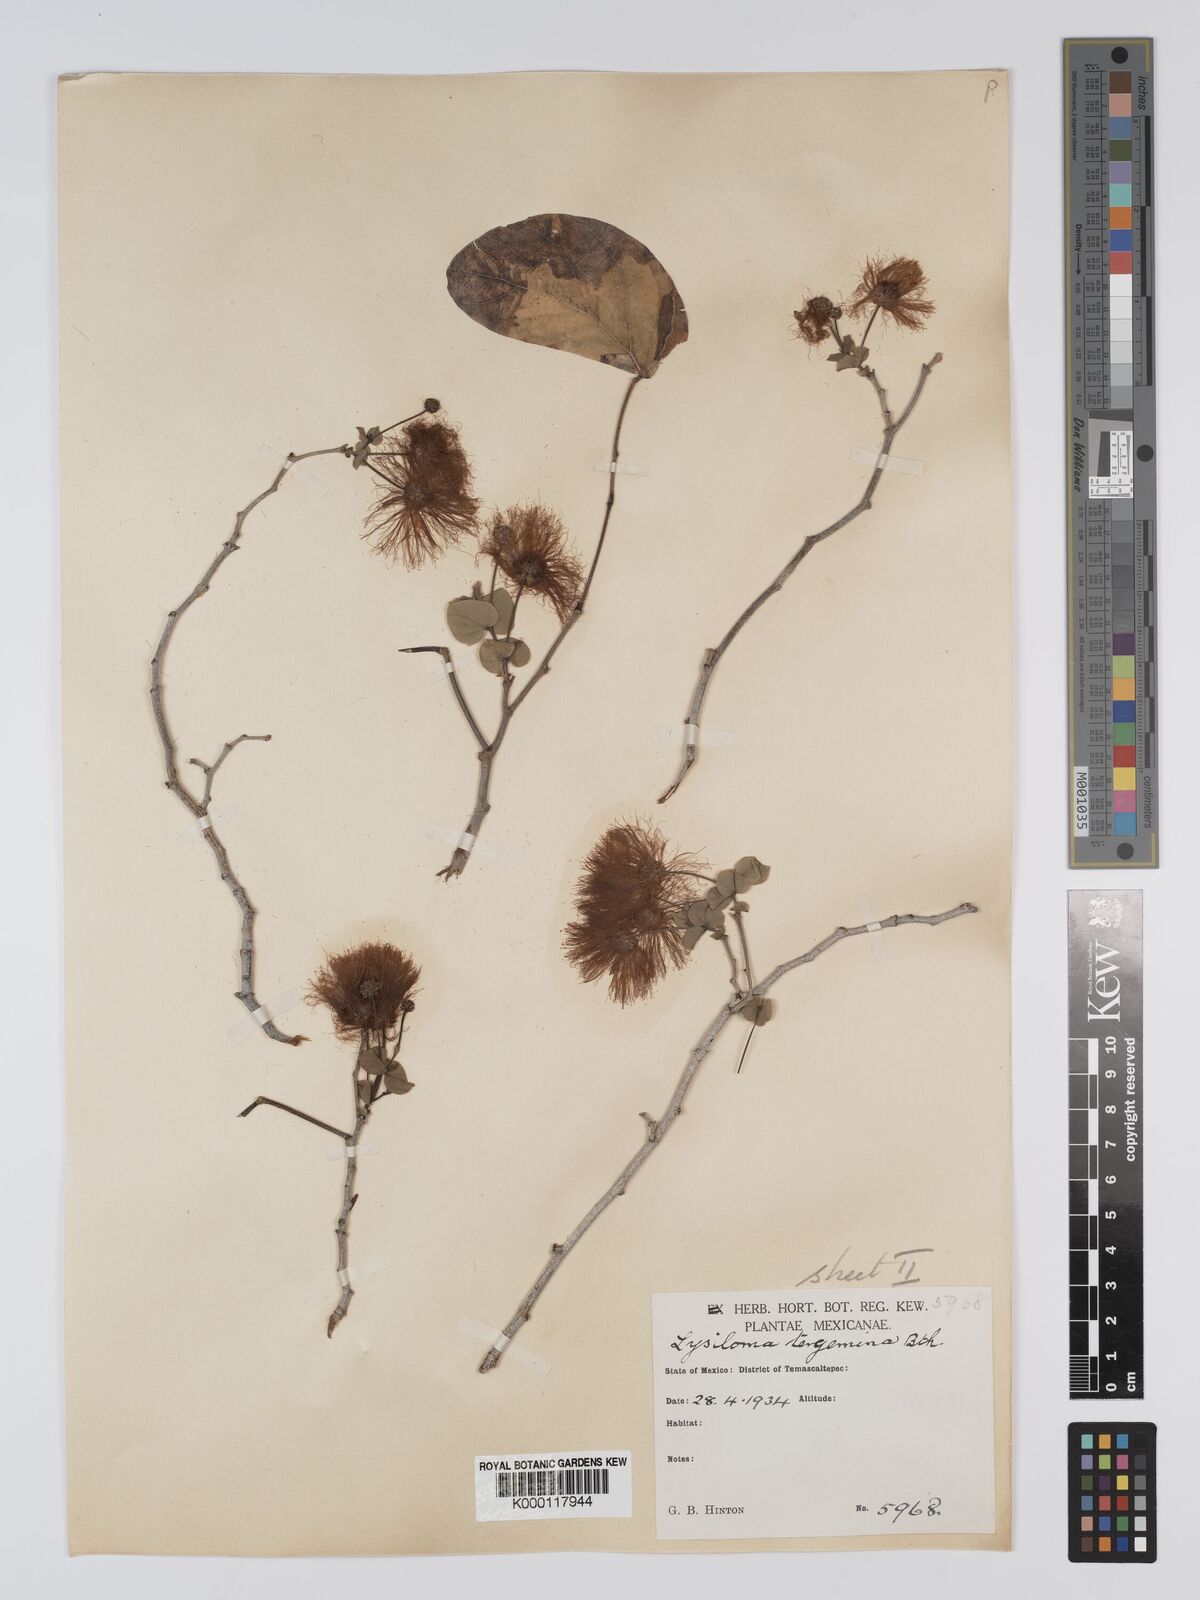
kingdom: Plantae
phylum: Tracheophyta
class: Magnoliopsida
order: Fabales
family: Fabaceae
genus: Lysiloma
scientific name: Lysiloma tergeminum
